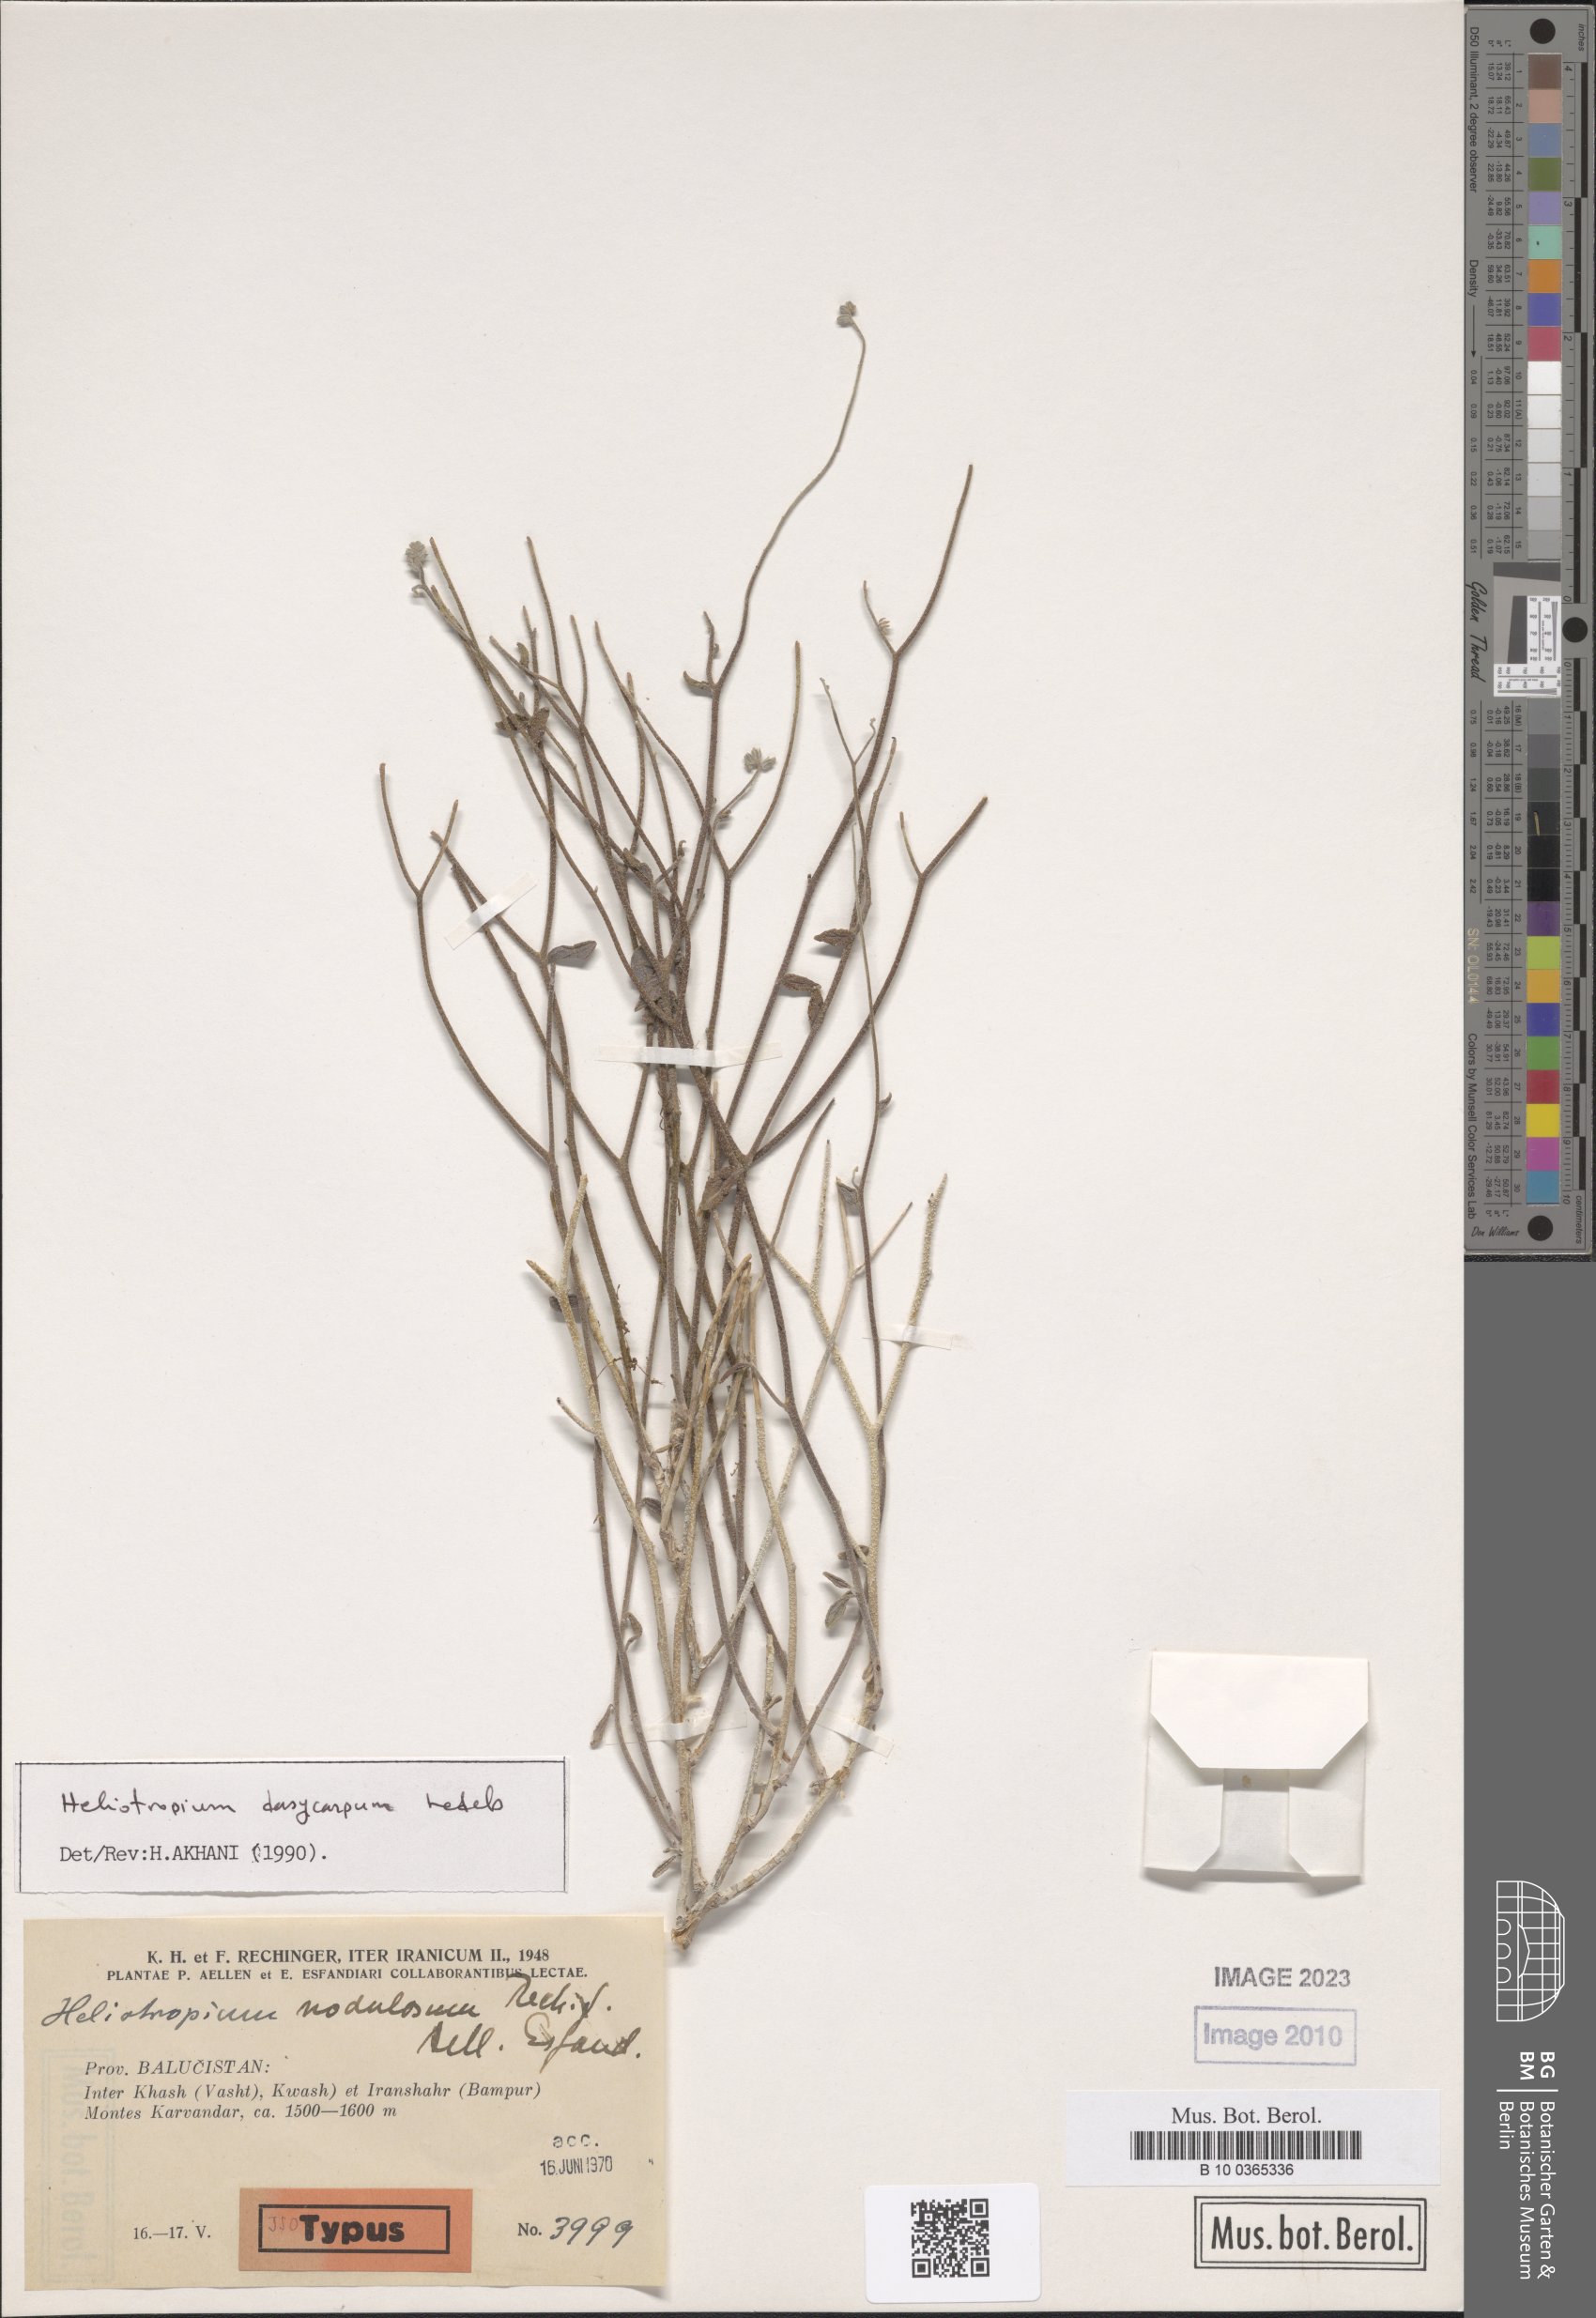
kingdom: Plantae
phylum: Tracheophyta
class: Magnoliopsida
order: Boraginales
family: Heliotropiaceae
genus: Heliotropium
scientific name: Heliotropium dasycarpum
